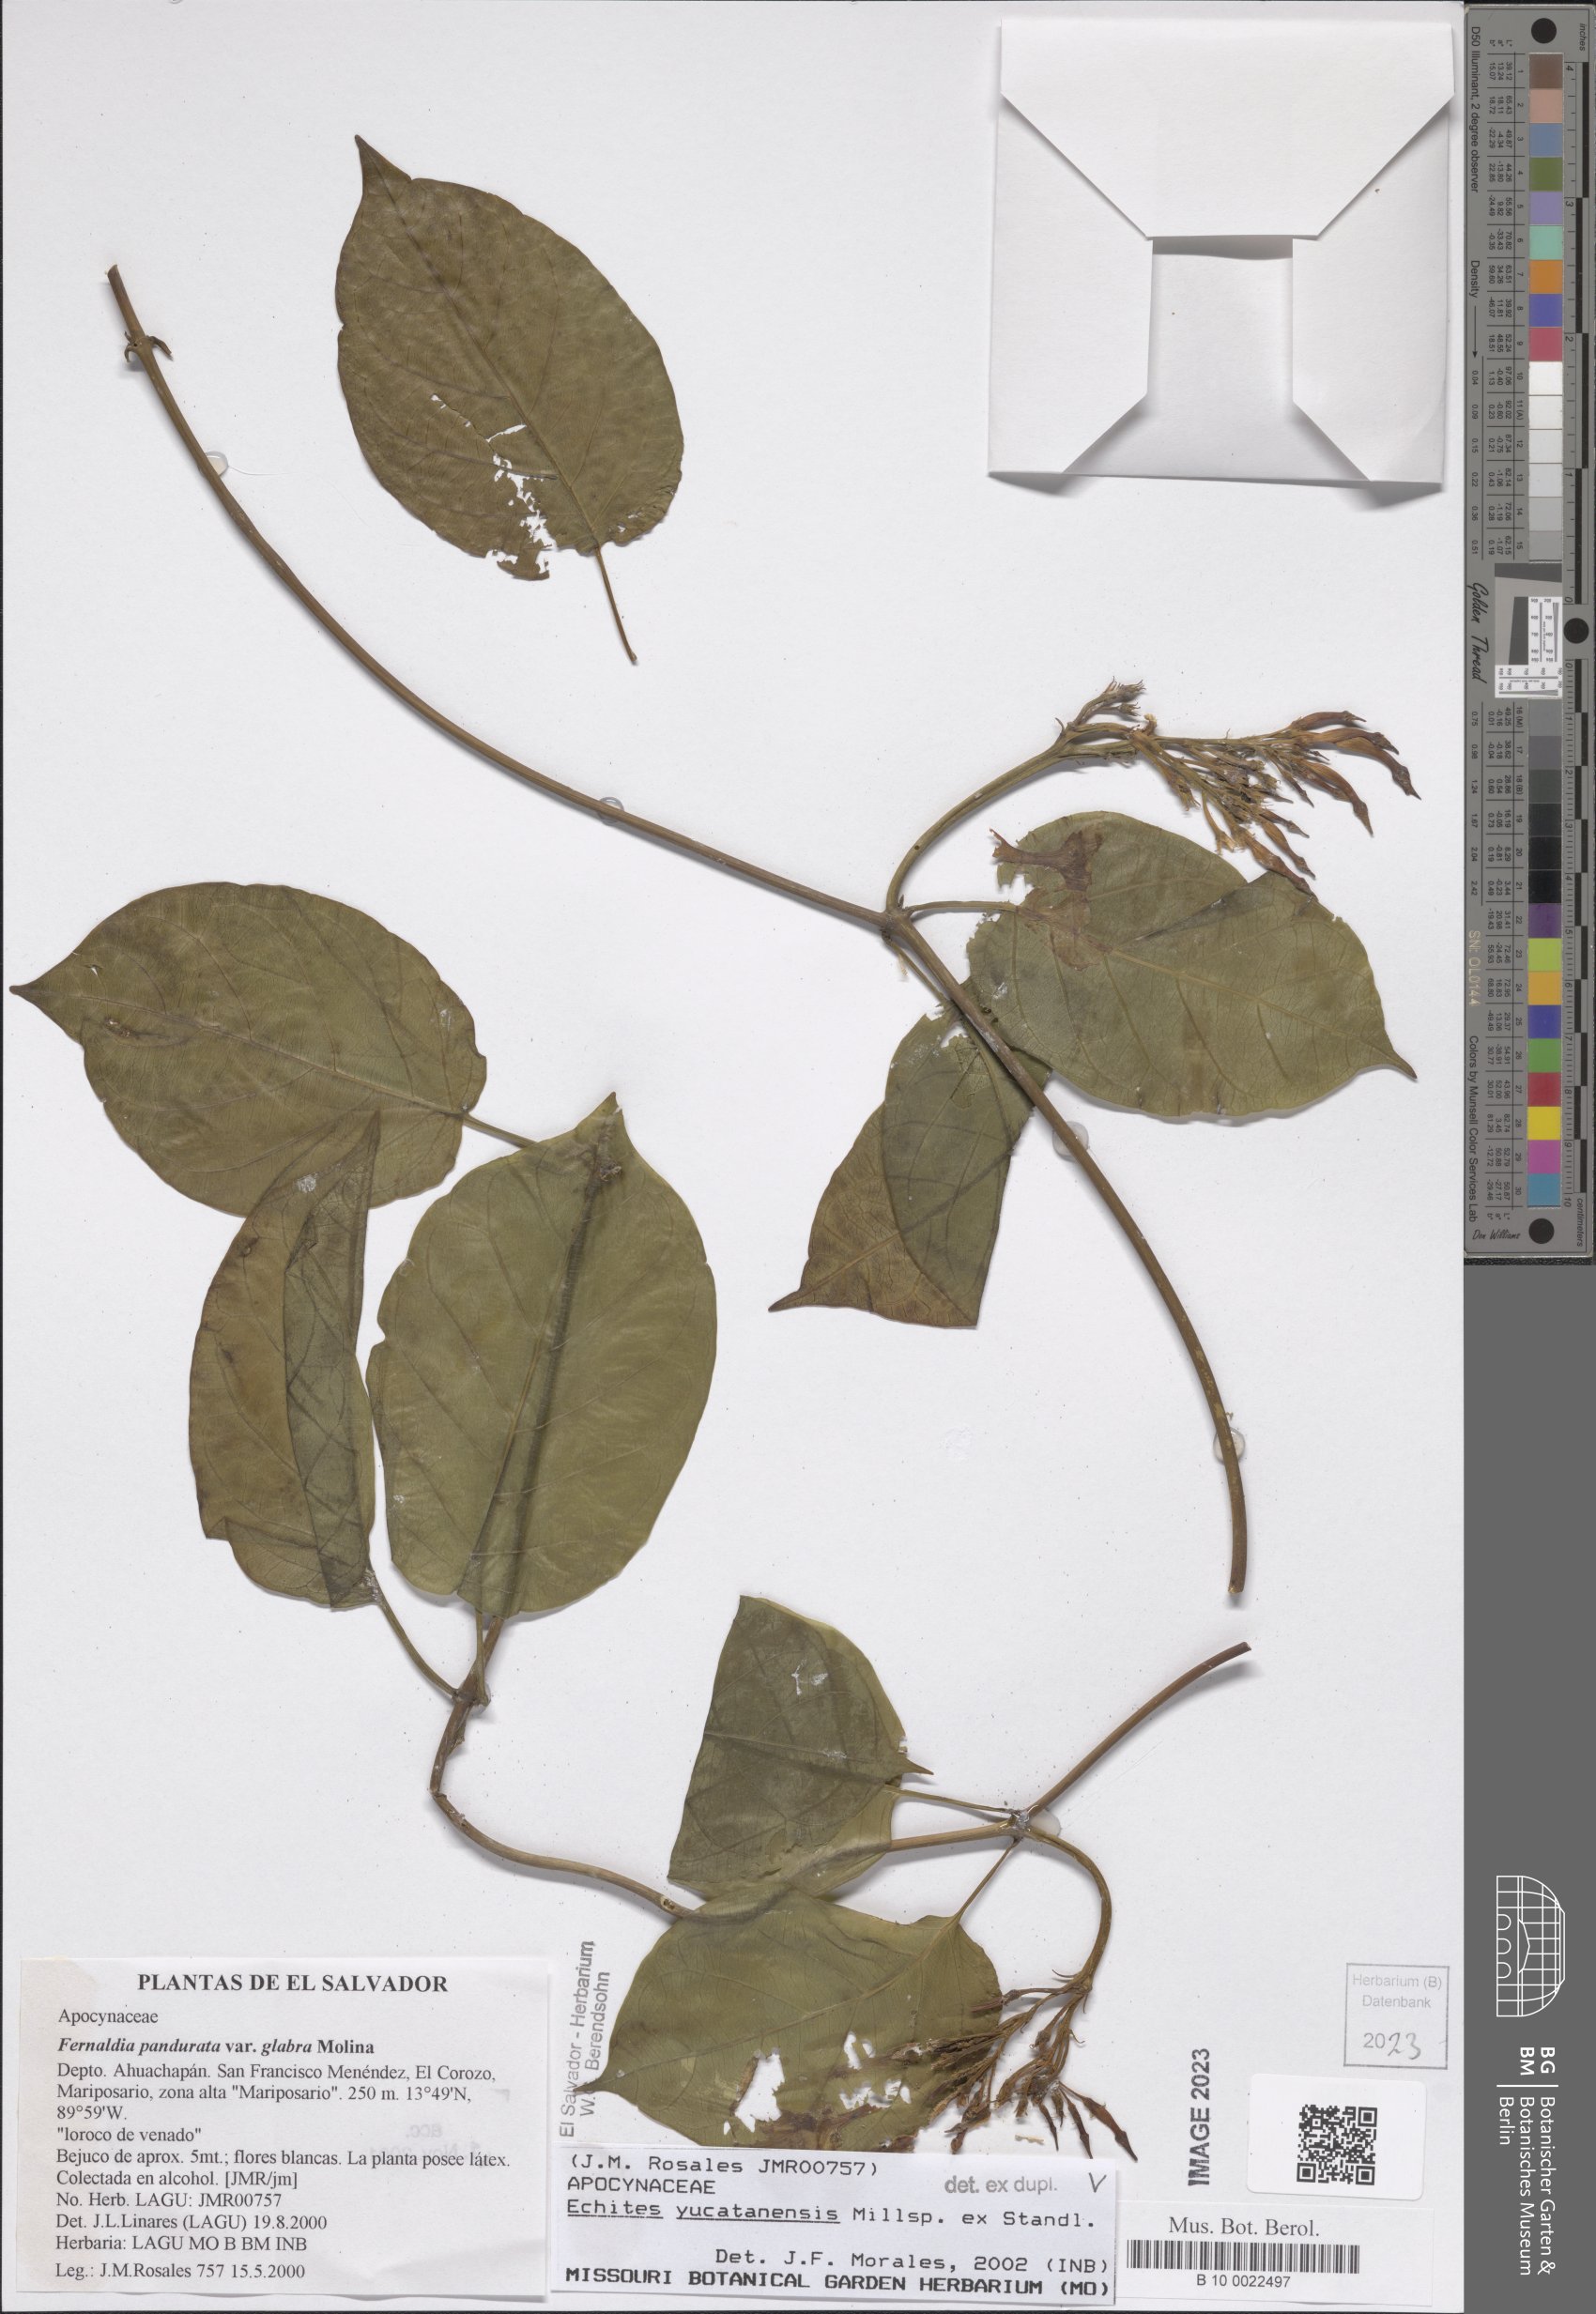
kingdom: Plantae
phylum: Tracheophyta
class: Magnoliopsida
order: Gentianales
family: Apocynaceae
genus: Echites
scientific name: Echites yucatanensis
